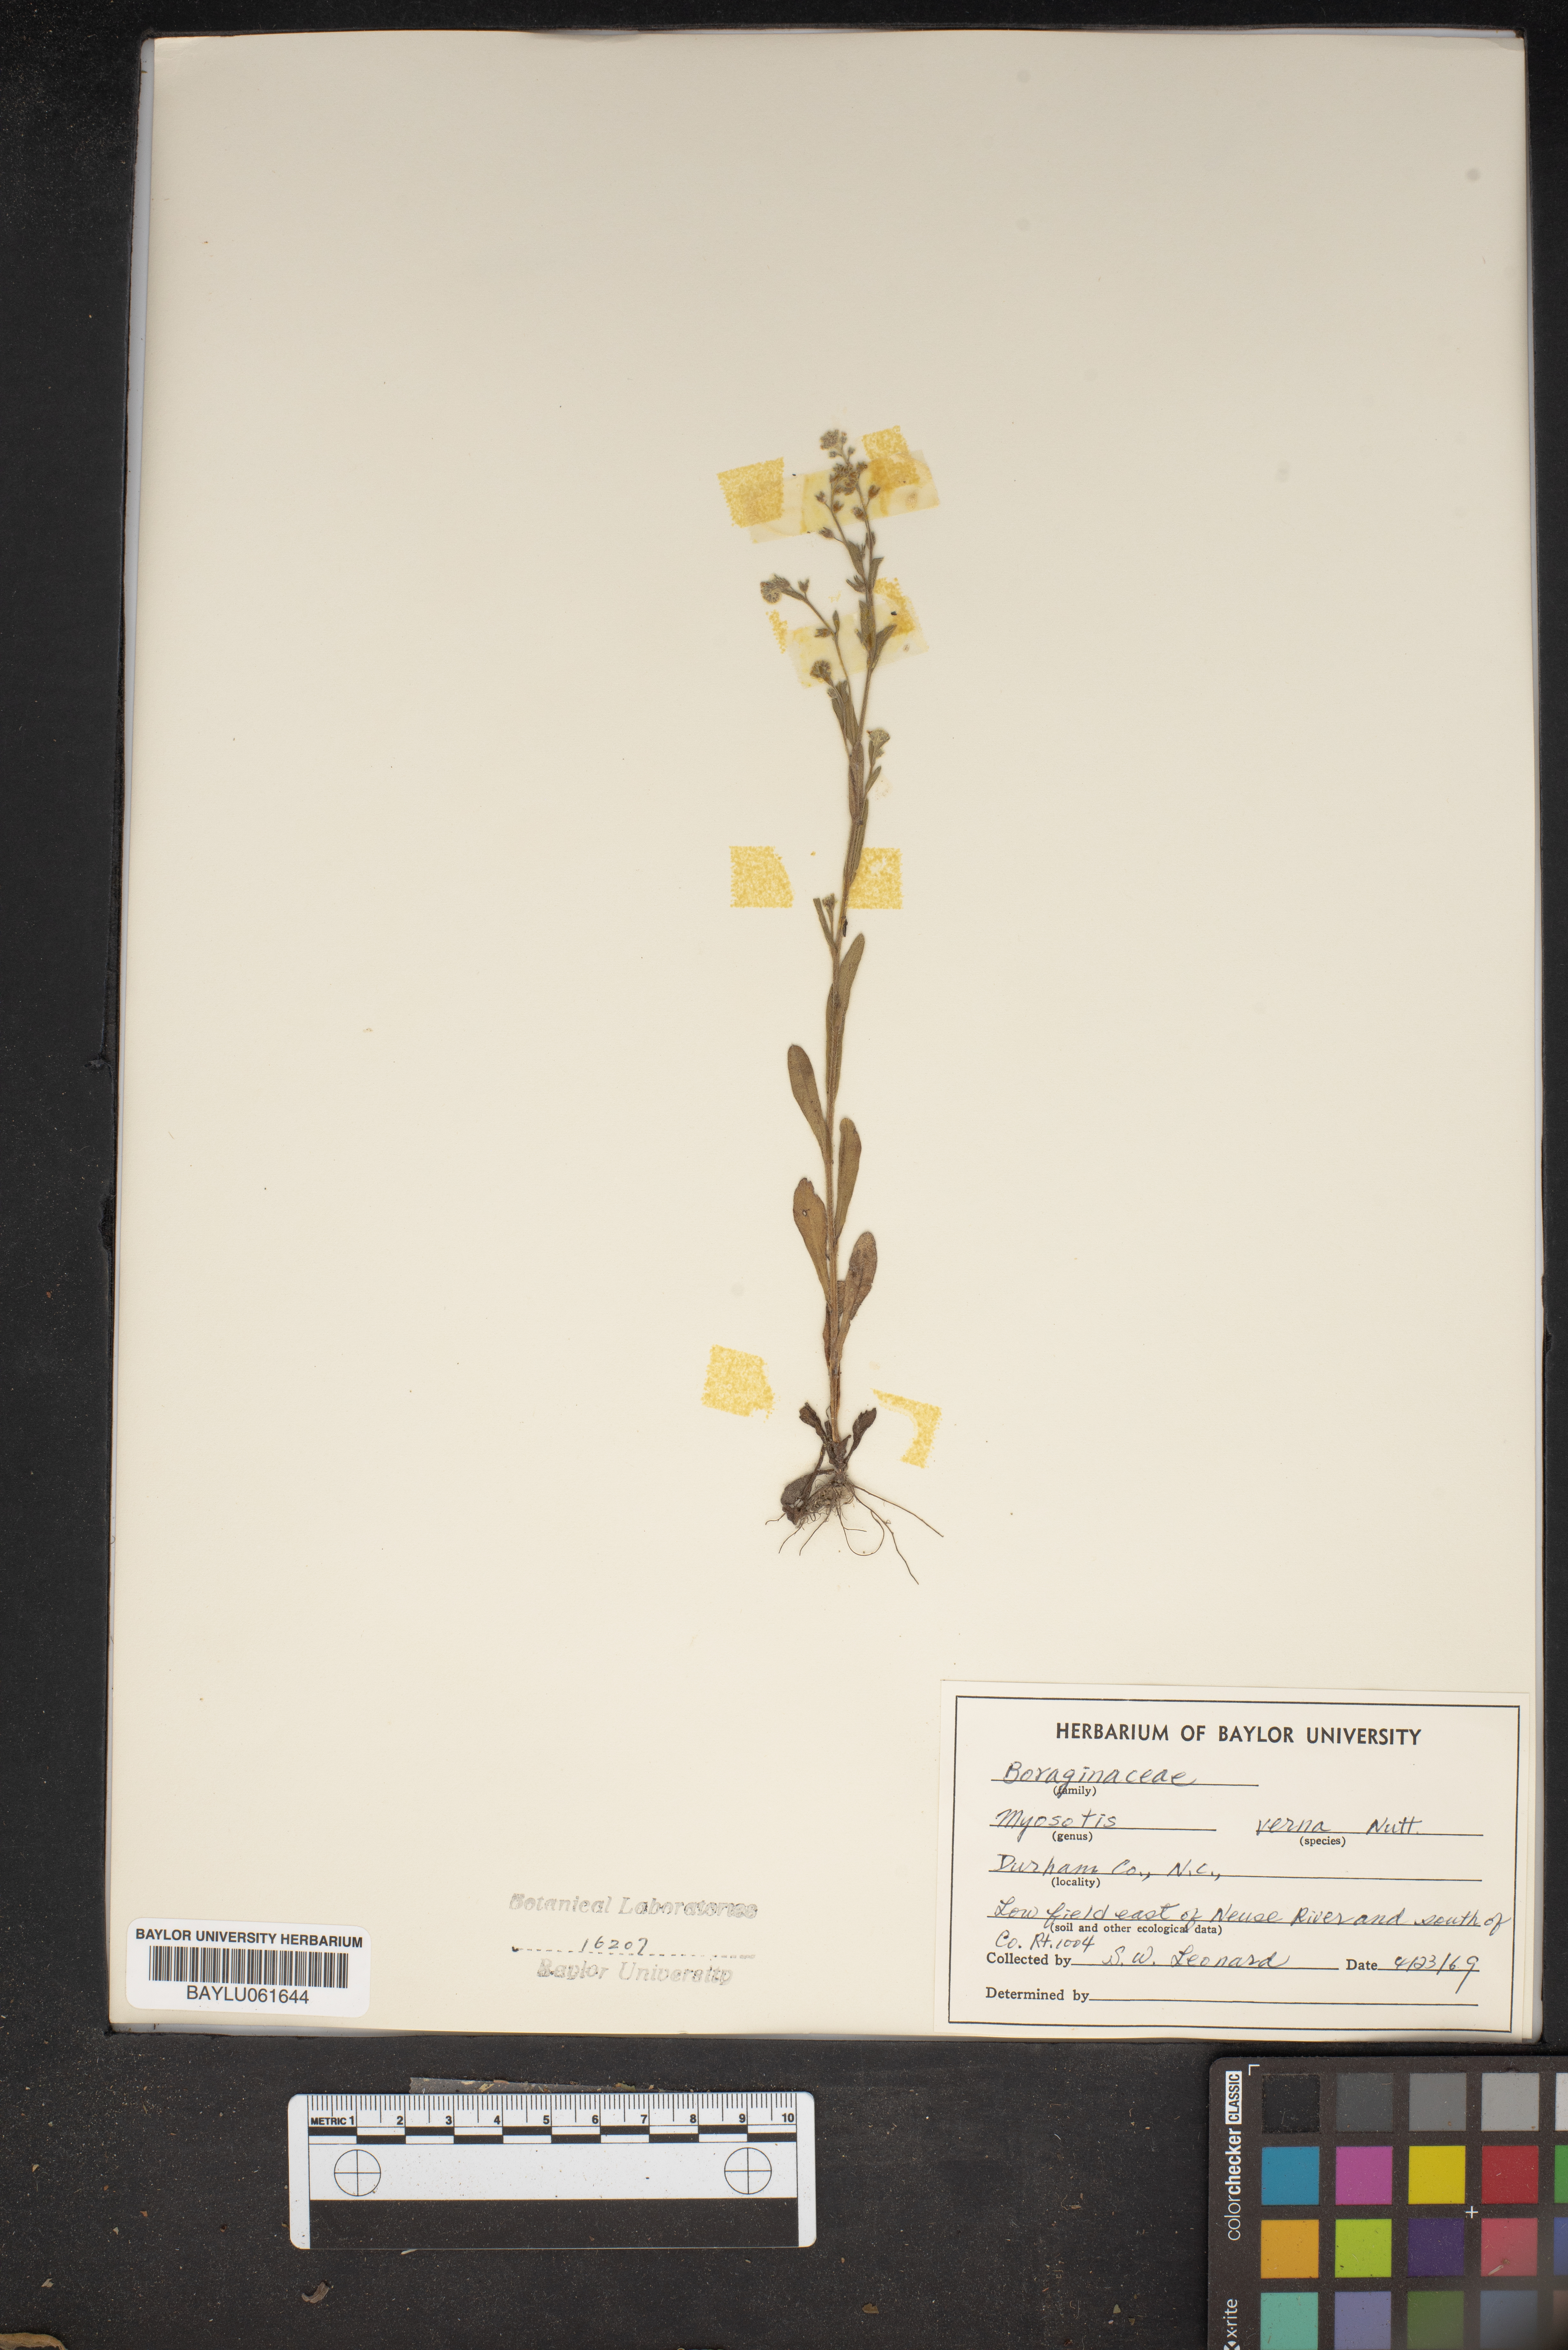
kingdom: Plantae
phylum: Tracheophyta
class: Magnoliopsida
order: Boraginales
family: Boraginaceae
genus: Myosotis
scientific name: Myosotis verna
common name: Early forget-me-not
